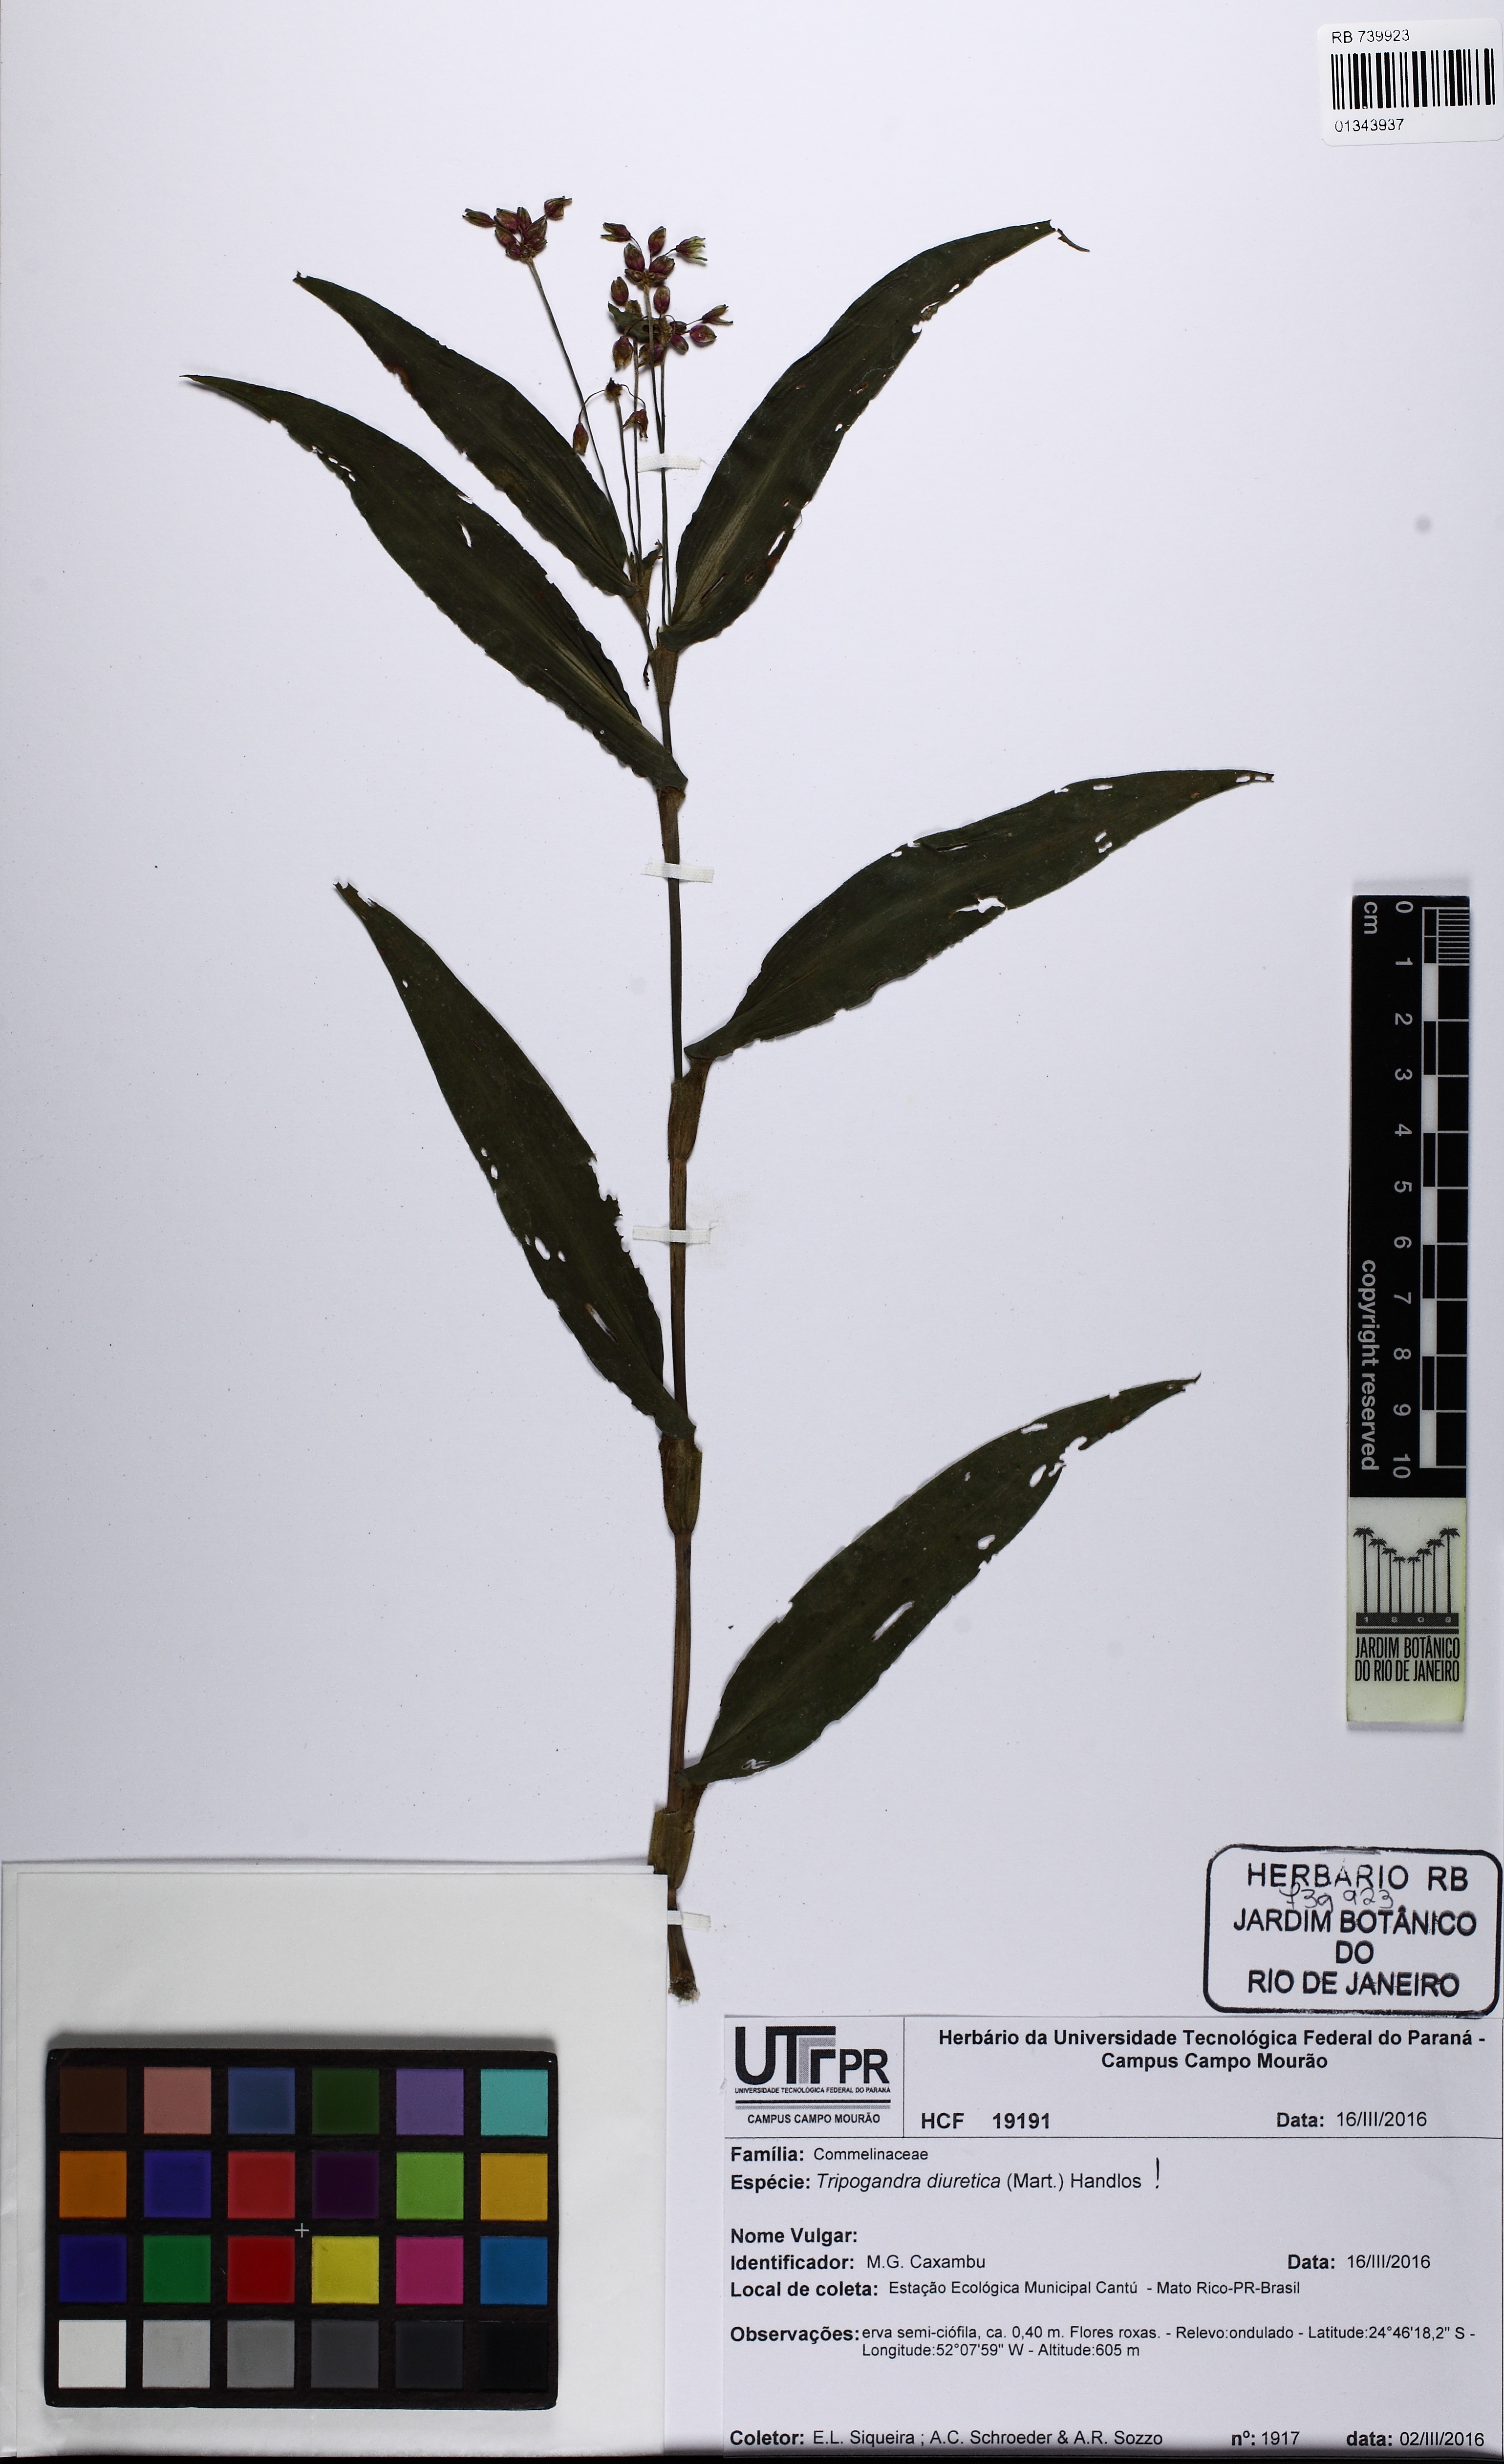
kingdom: Plantae
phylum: Tracheophyta
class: Liliopsida
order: Commelinales
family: Commelinaceae
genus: Callisia
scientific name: Callisia diuretica
